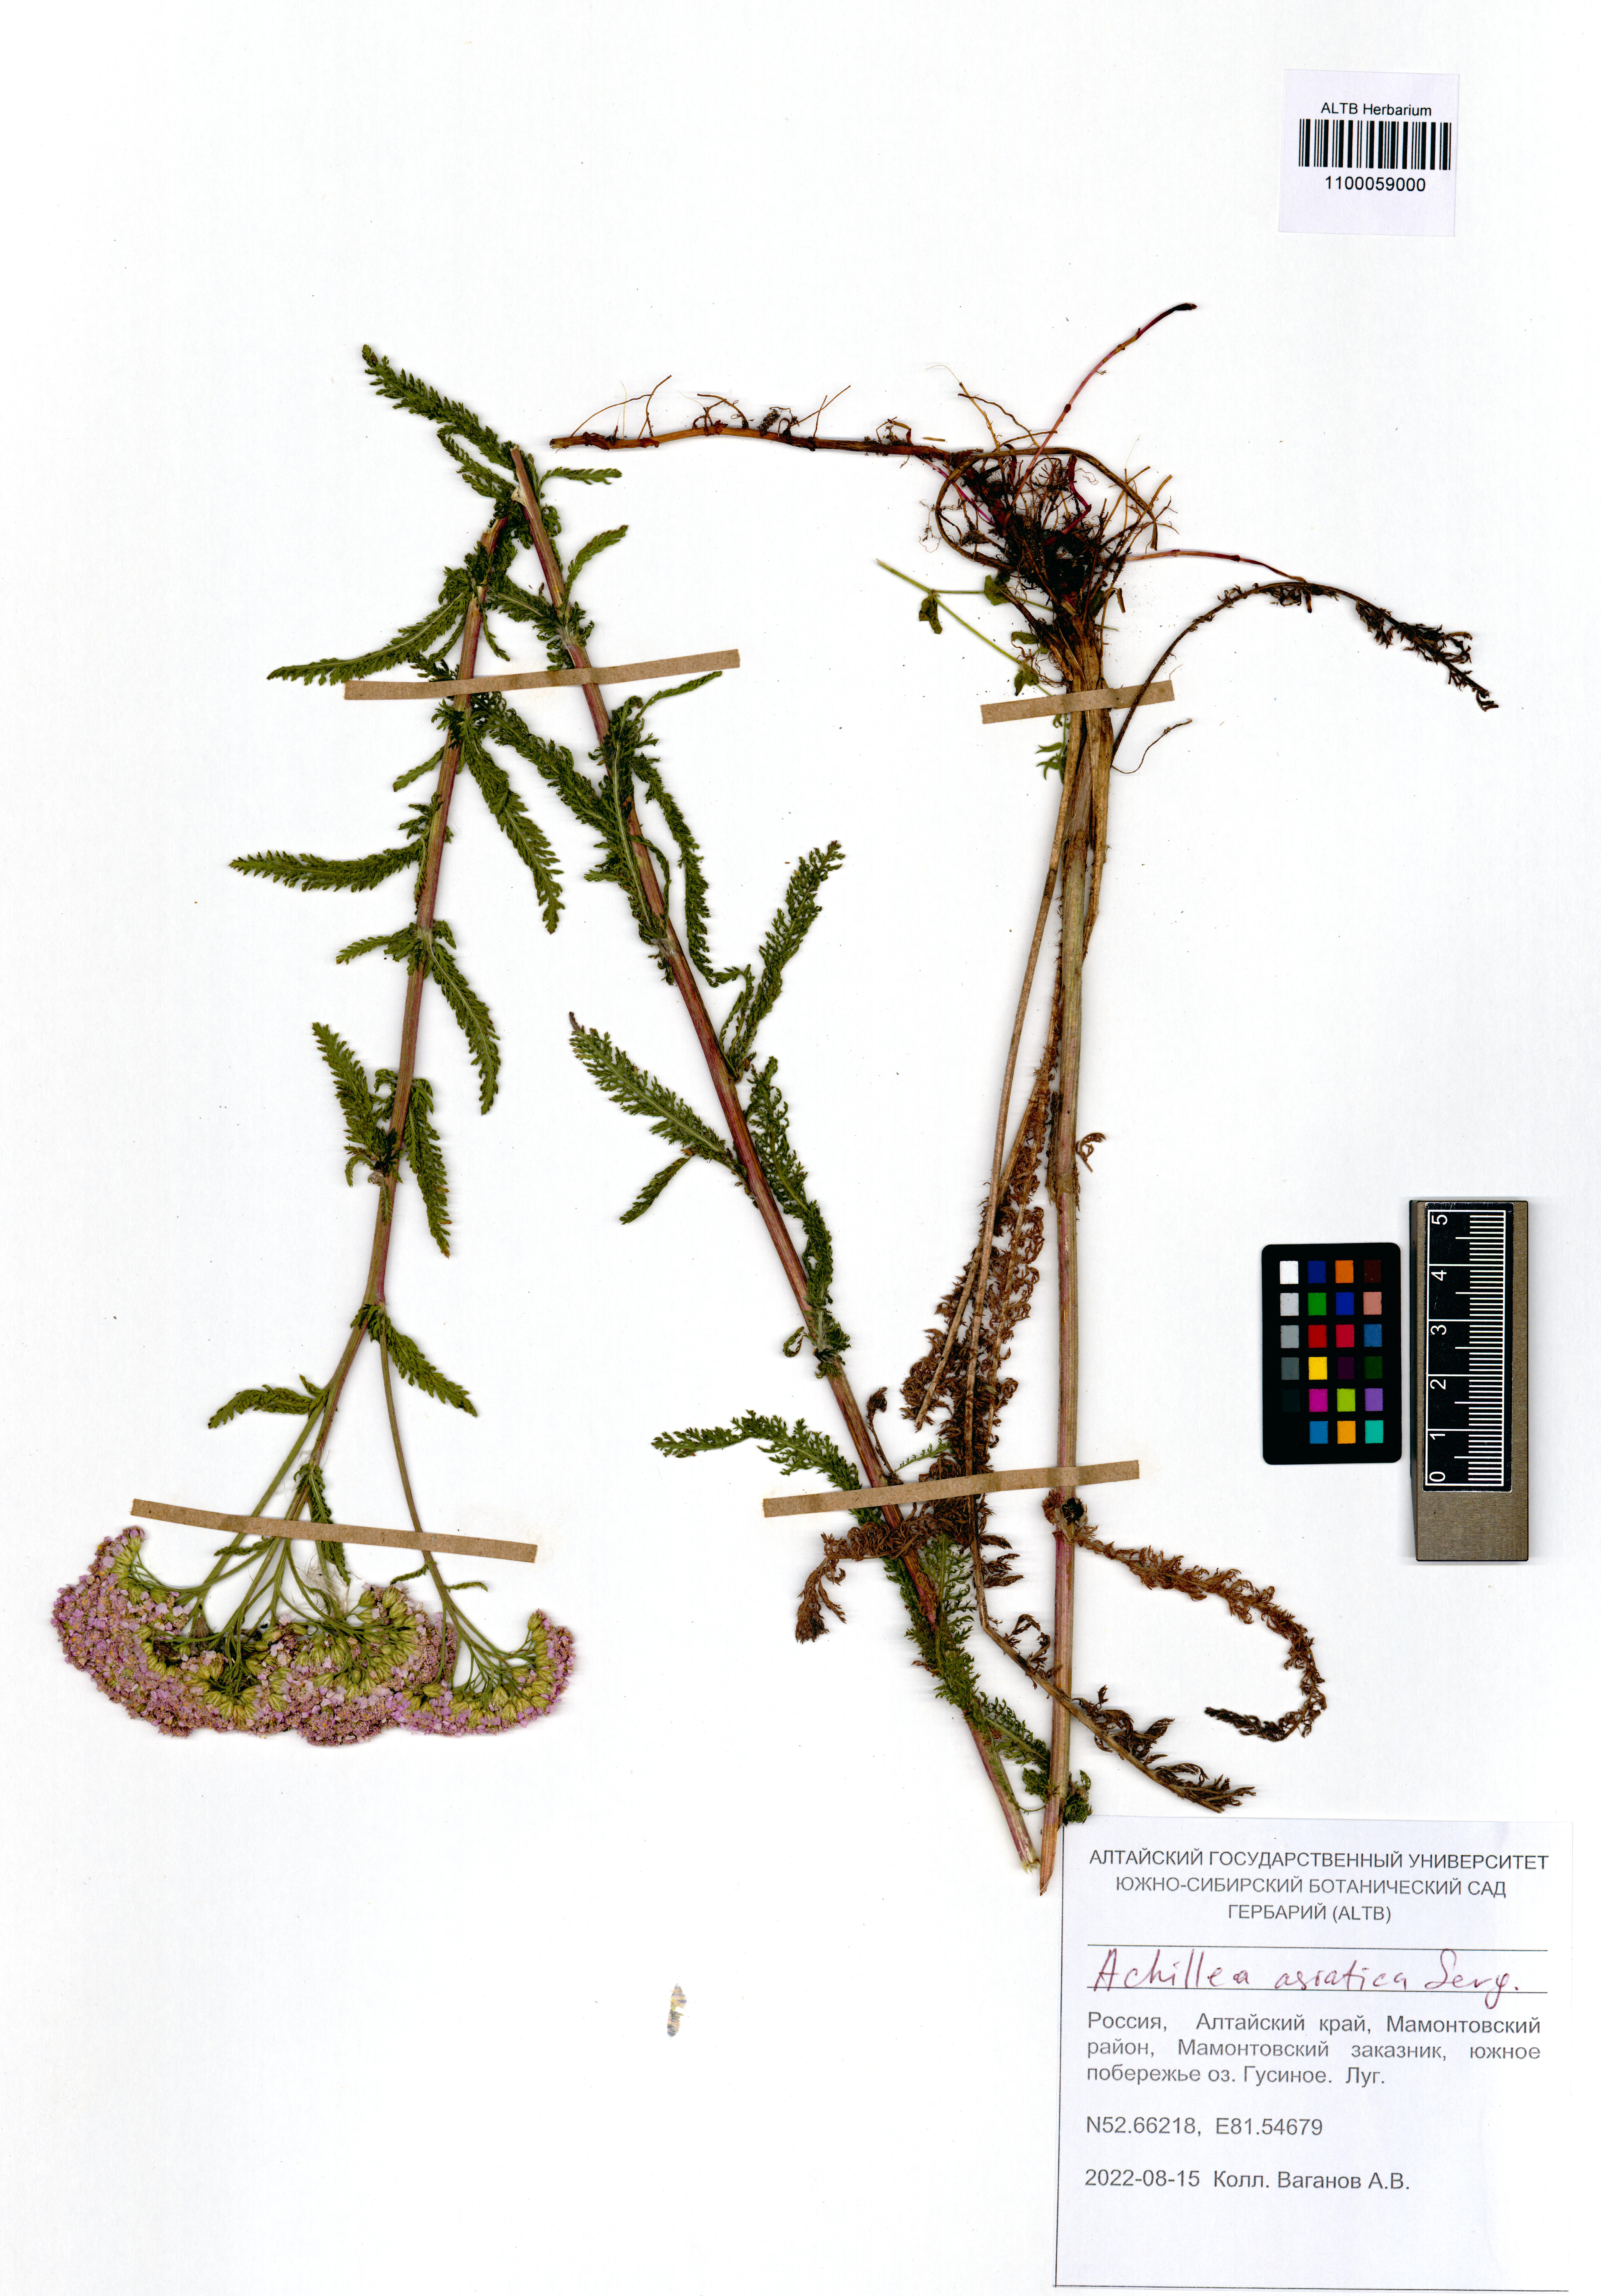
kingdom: Plantae
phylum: Tracheophyta
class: Magnoliopsida
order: Asterales
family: Asteraceae
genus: Achillea
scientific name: Achillea asiatica
